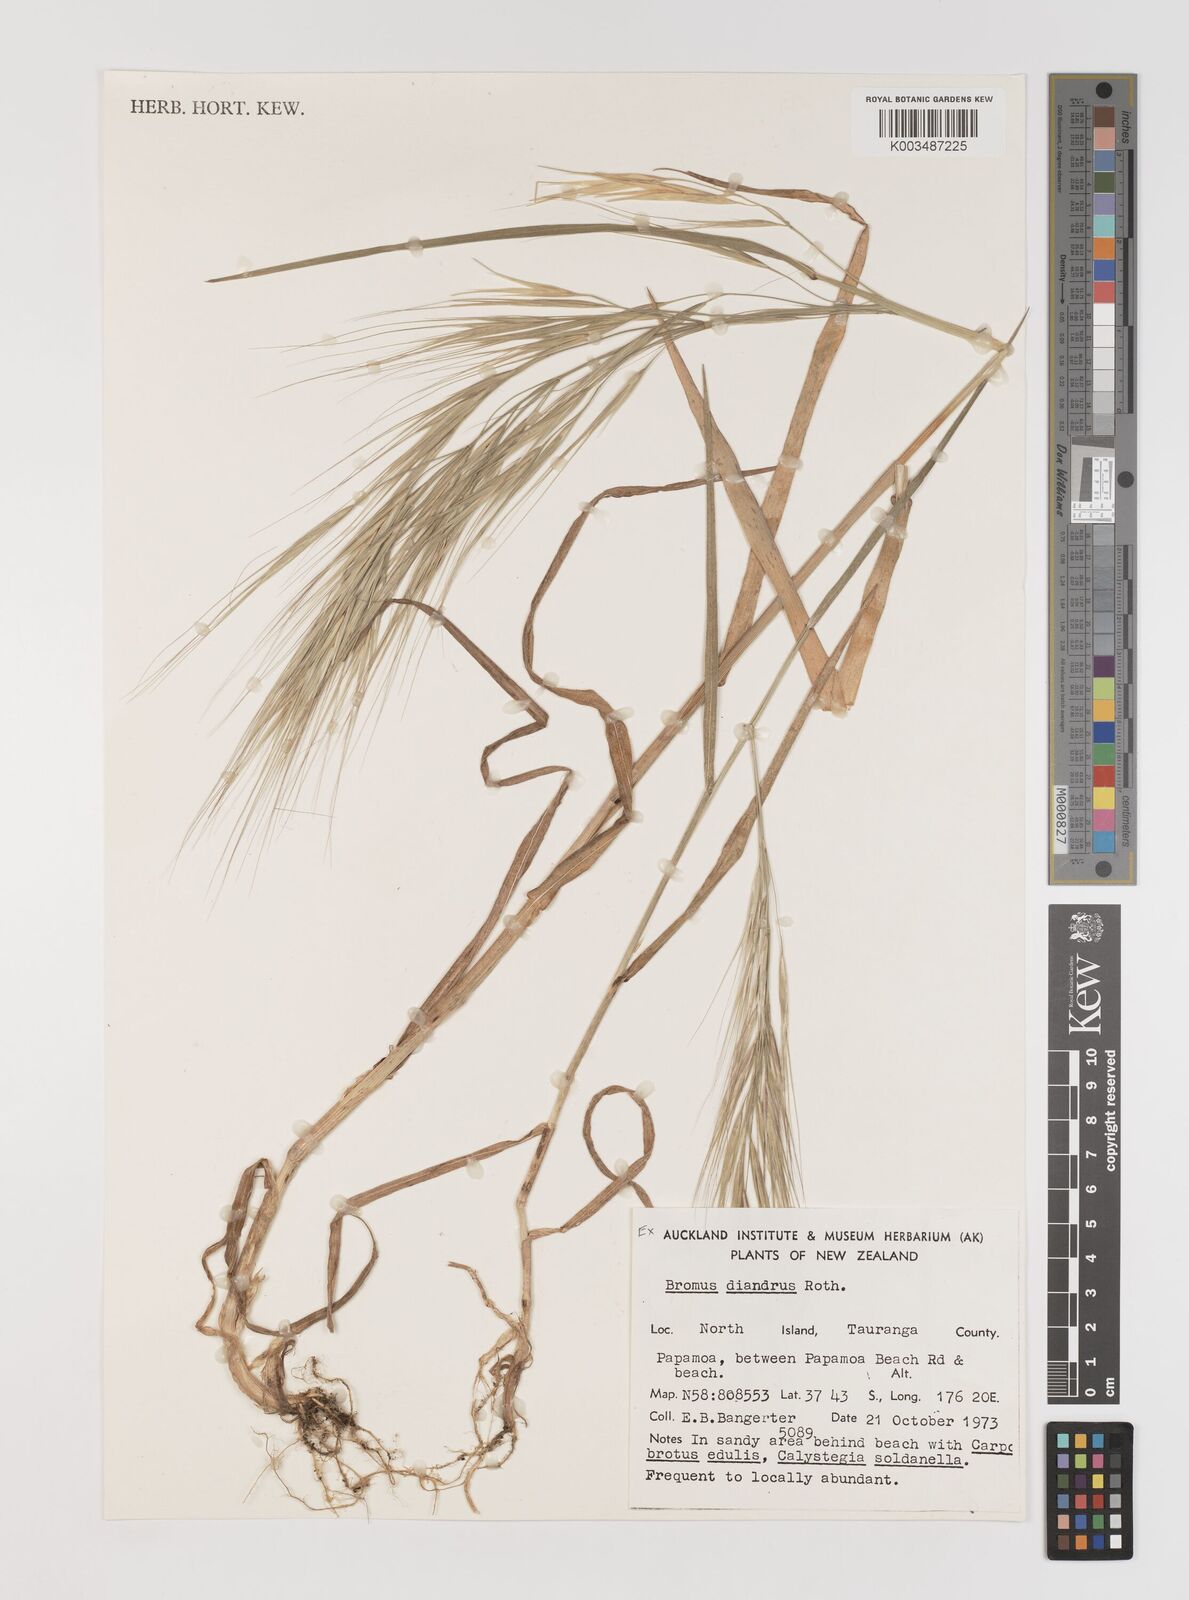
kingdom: Plantae
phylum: Tracheophyta
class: Liliopsida
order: Poales
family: Poaceae
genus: Bromus
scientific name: Bromus diandrus
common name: Ripgut brome
